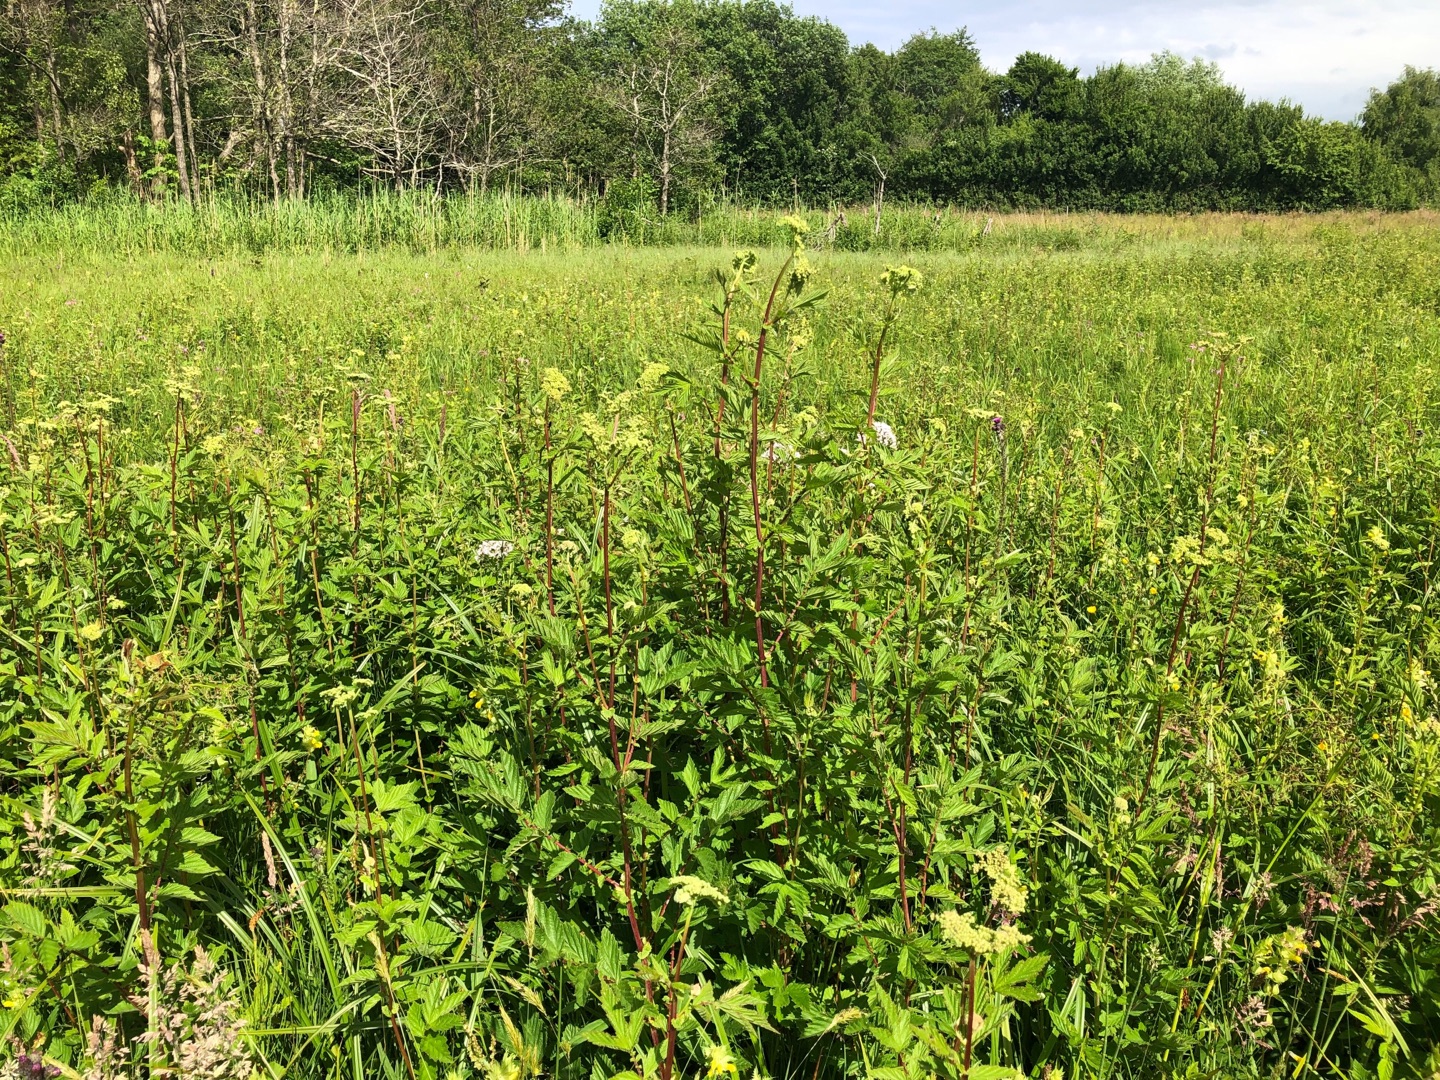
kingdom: Plantae
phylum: Tracheophyta
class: Magnoliopsida
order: Rosales
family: Rosaceae
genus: Filipendula
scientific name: Filipendula ulmaria
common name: Almindelig mjødurt
